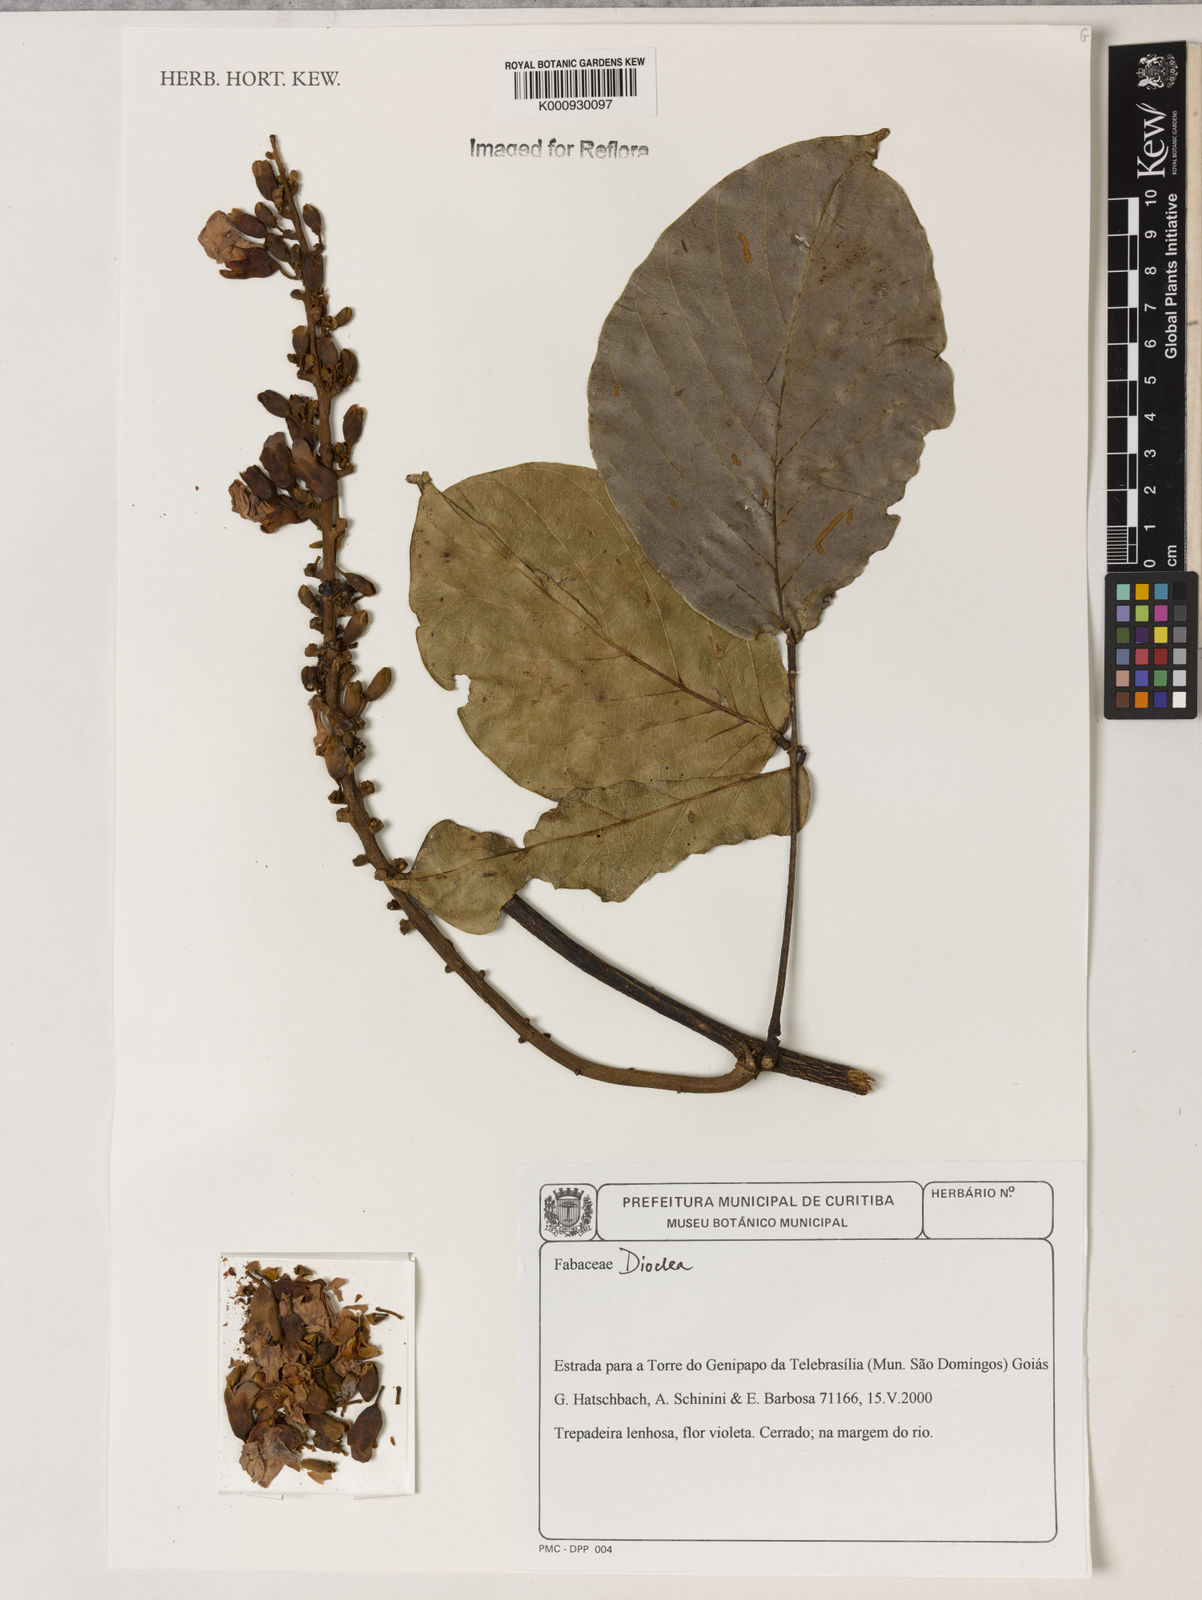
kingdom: Plantae
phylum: Tracheophyta
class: Magnoliopsida
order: Fabales
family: Fabaceae
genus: Dioclea
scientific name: Dioclea
